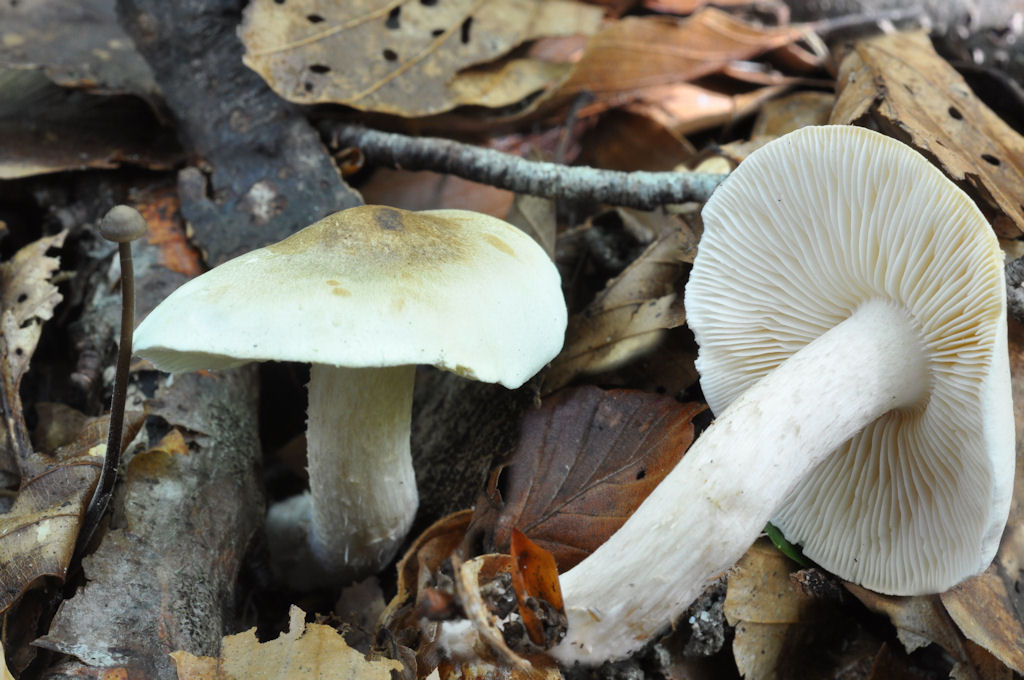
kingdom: Fungi
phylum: Basidiomycota
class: Agaricomycetes
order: Agaricales
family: Tricholomataceae
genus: Tricholoma
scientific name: Tricholoma lascivum
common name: stinkende ridderhat
